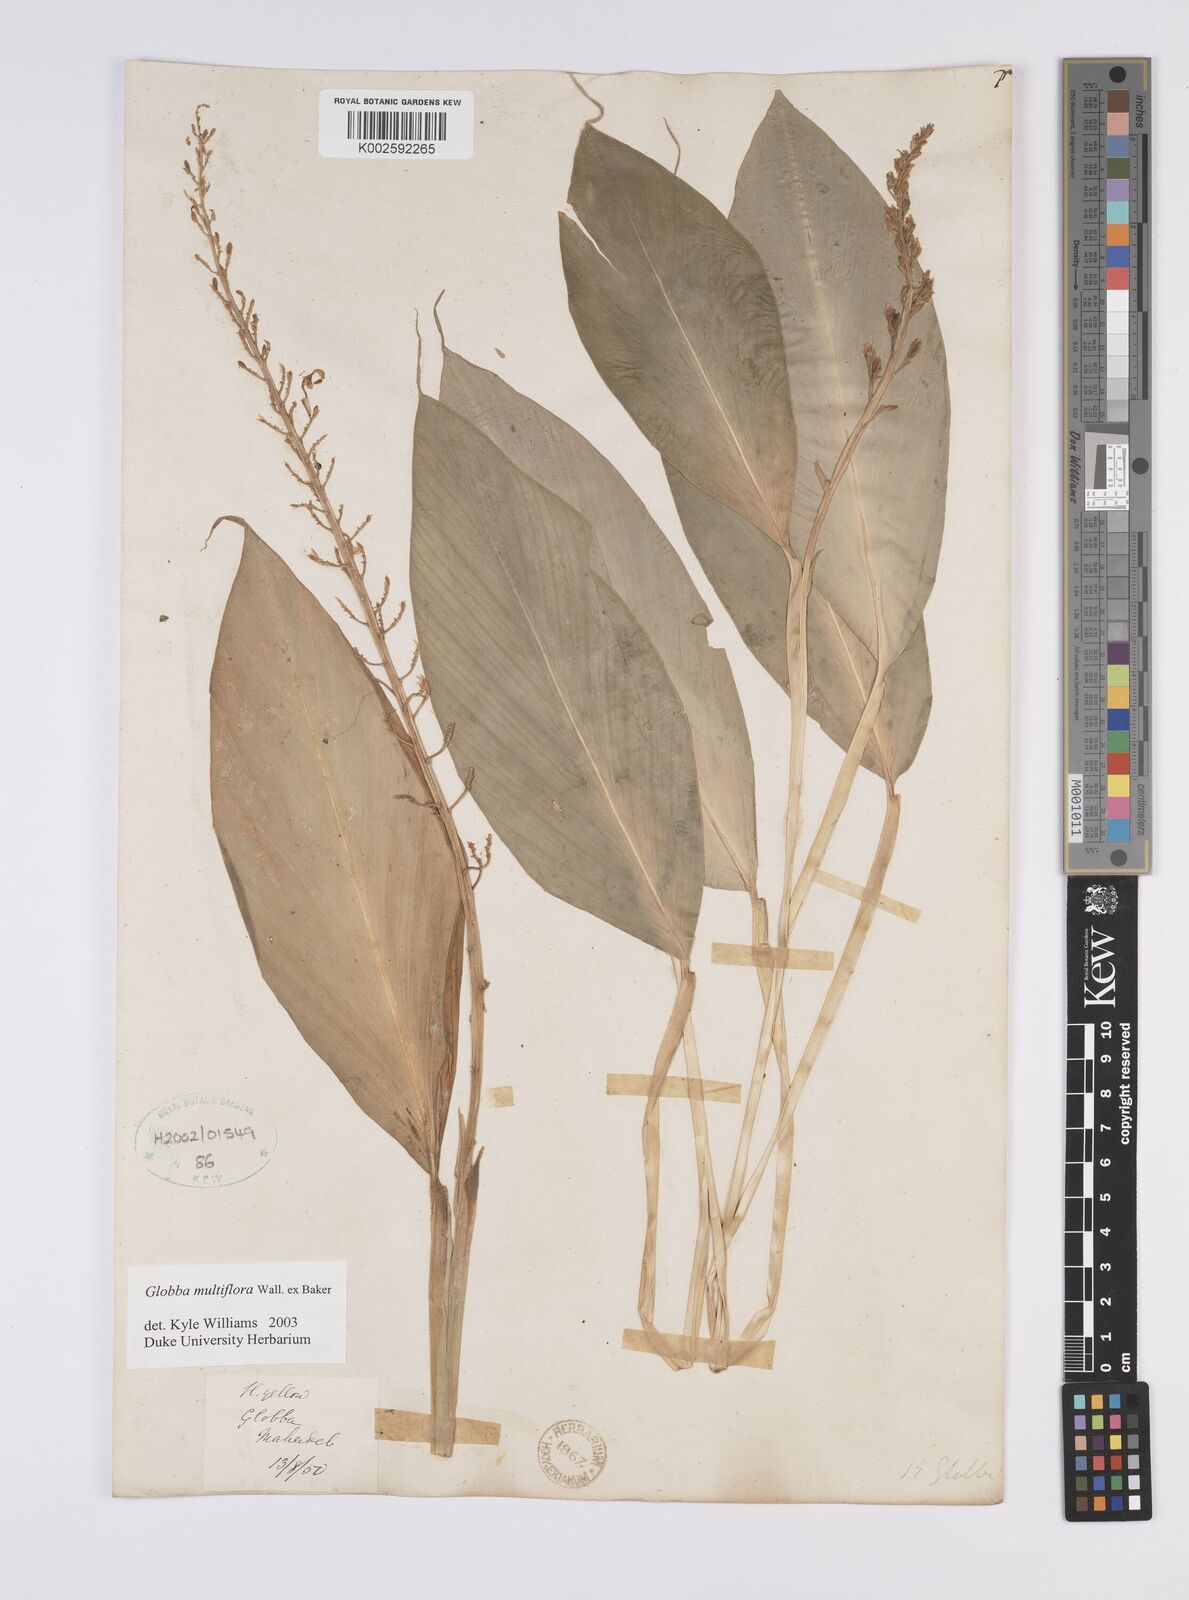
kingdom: Plantae
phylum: Tracheophyta
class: Liliopsida
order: Zingiberales
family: Zingiberaceae
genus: Globba
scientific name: Globba multiflora
